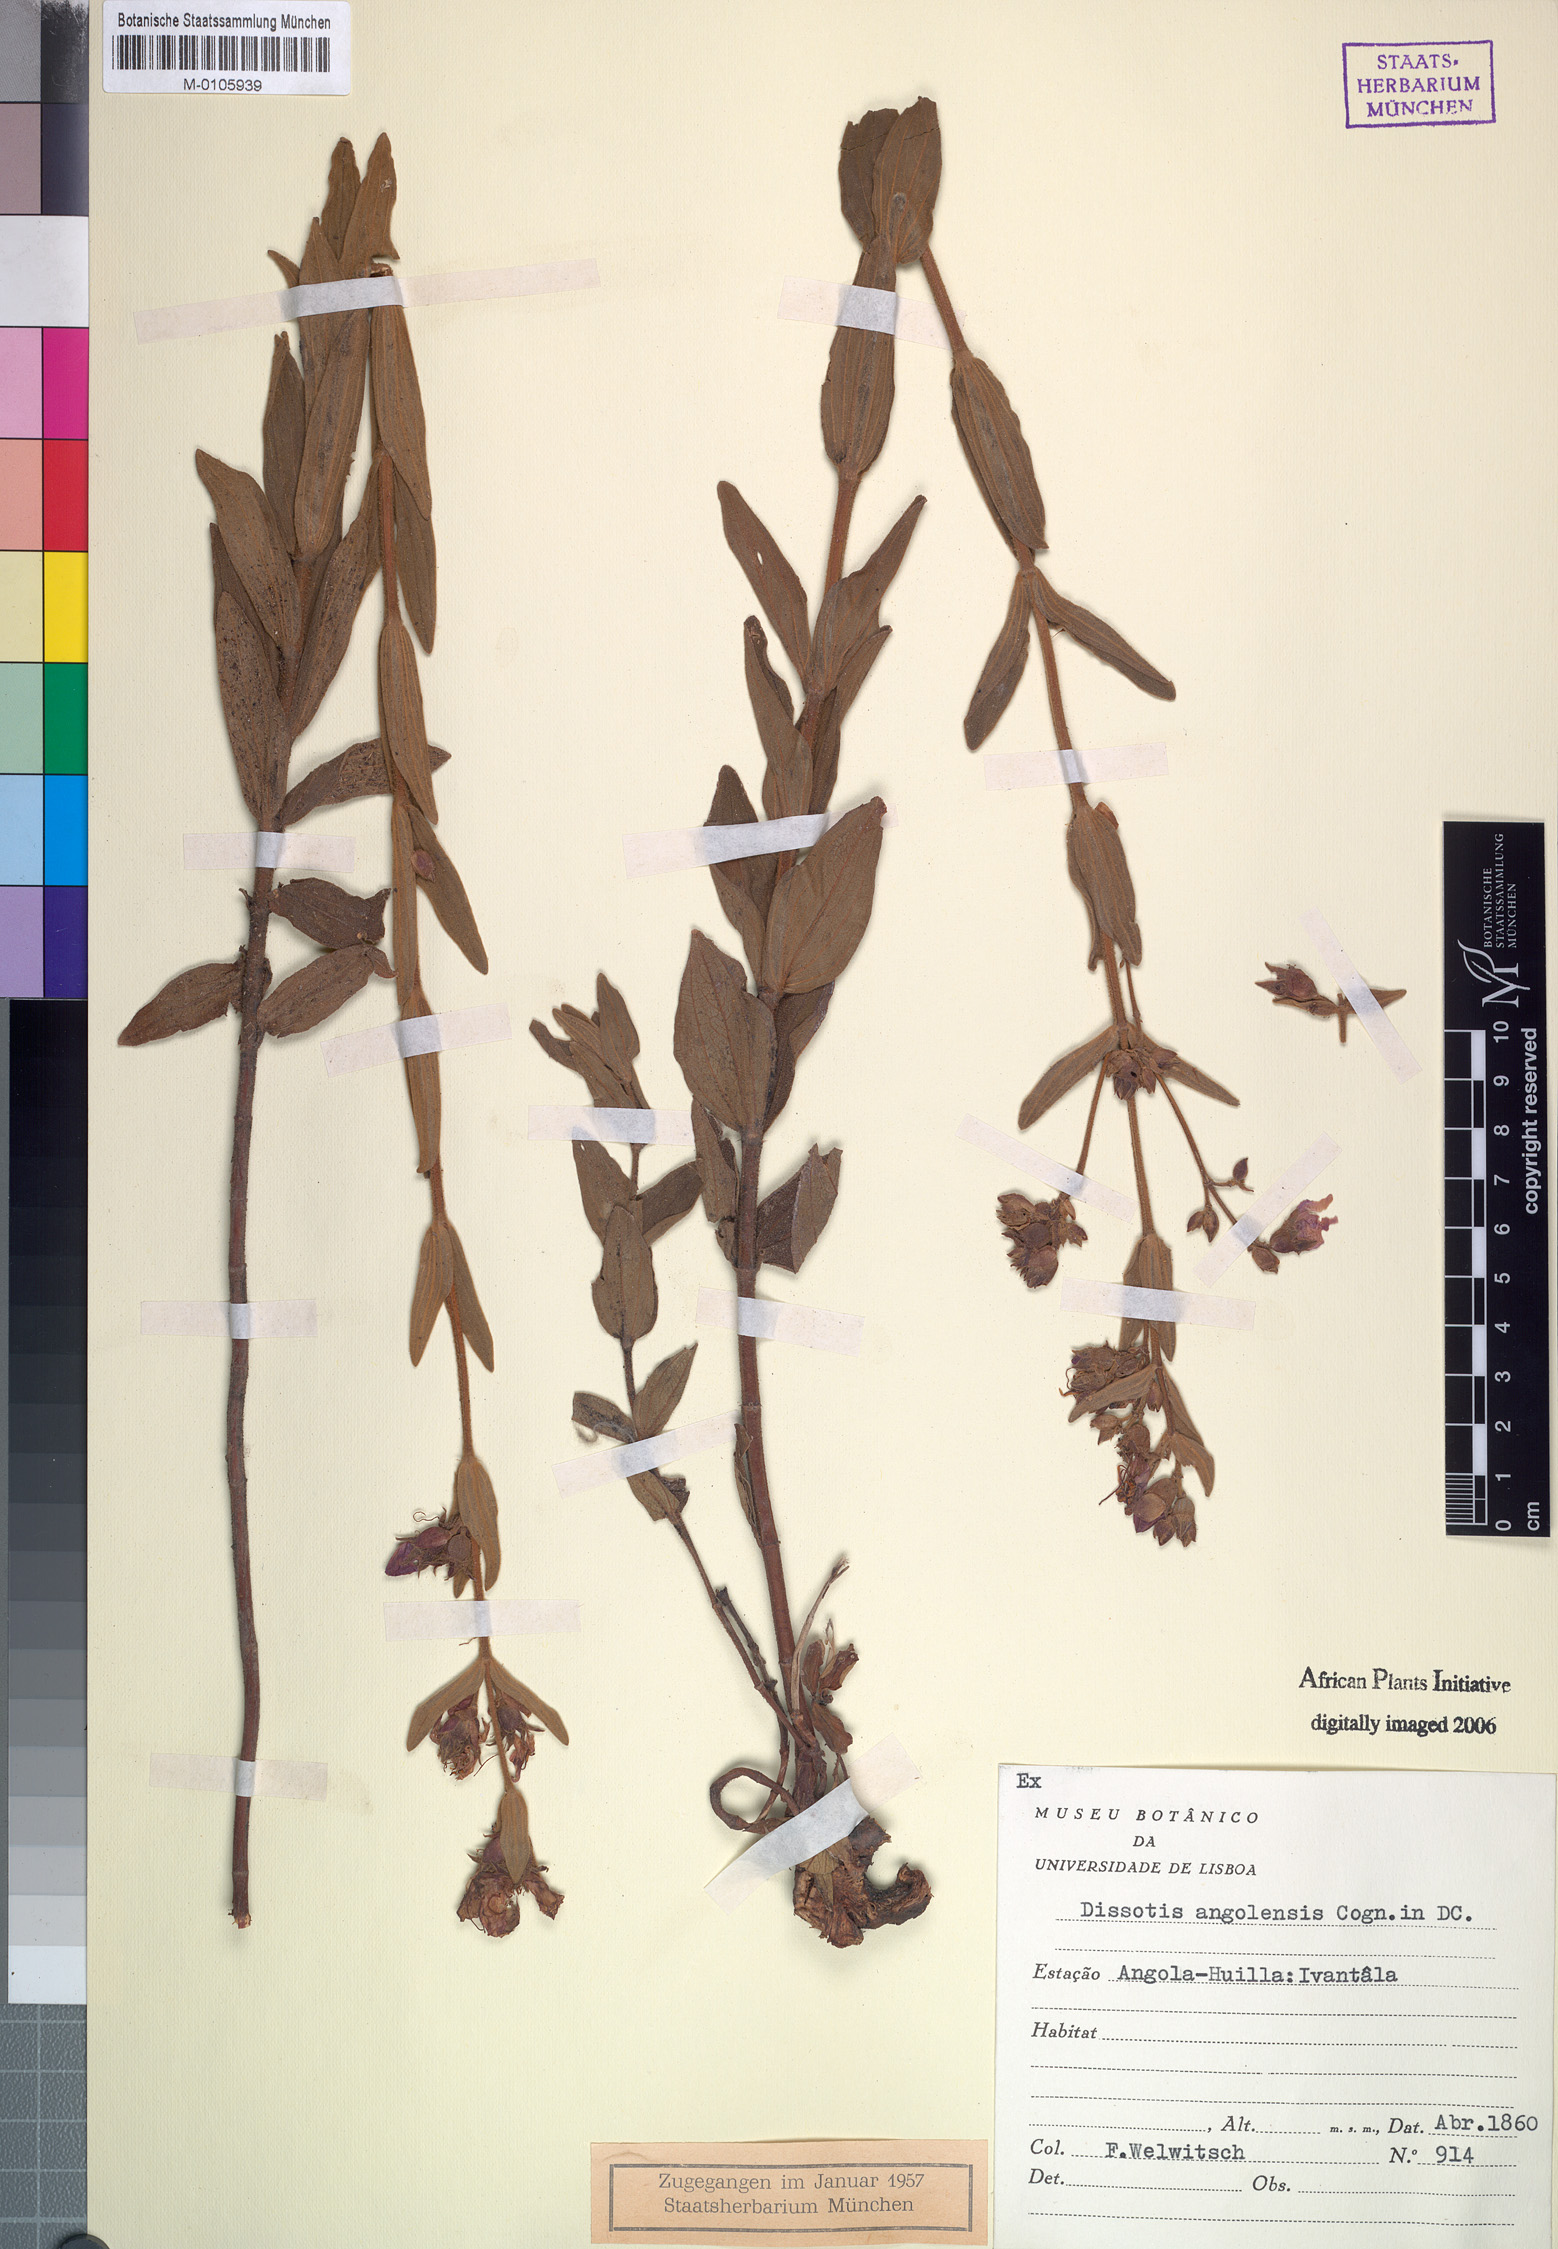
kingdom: Plantae
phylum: Tracheophyta
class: Magnoliopsida
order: Myrtales
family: Melastomataceae
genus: Argyrella
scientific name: Argyrella angolensis
